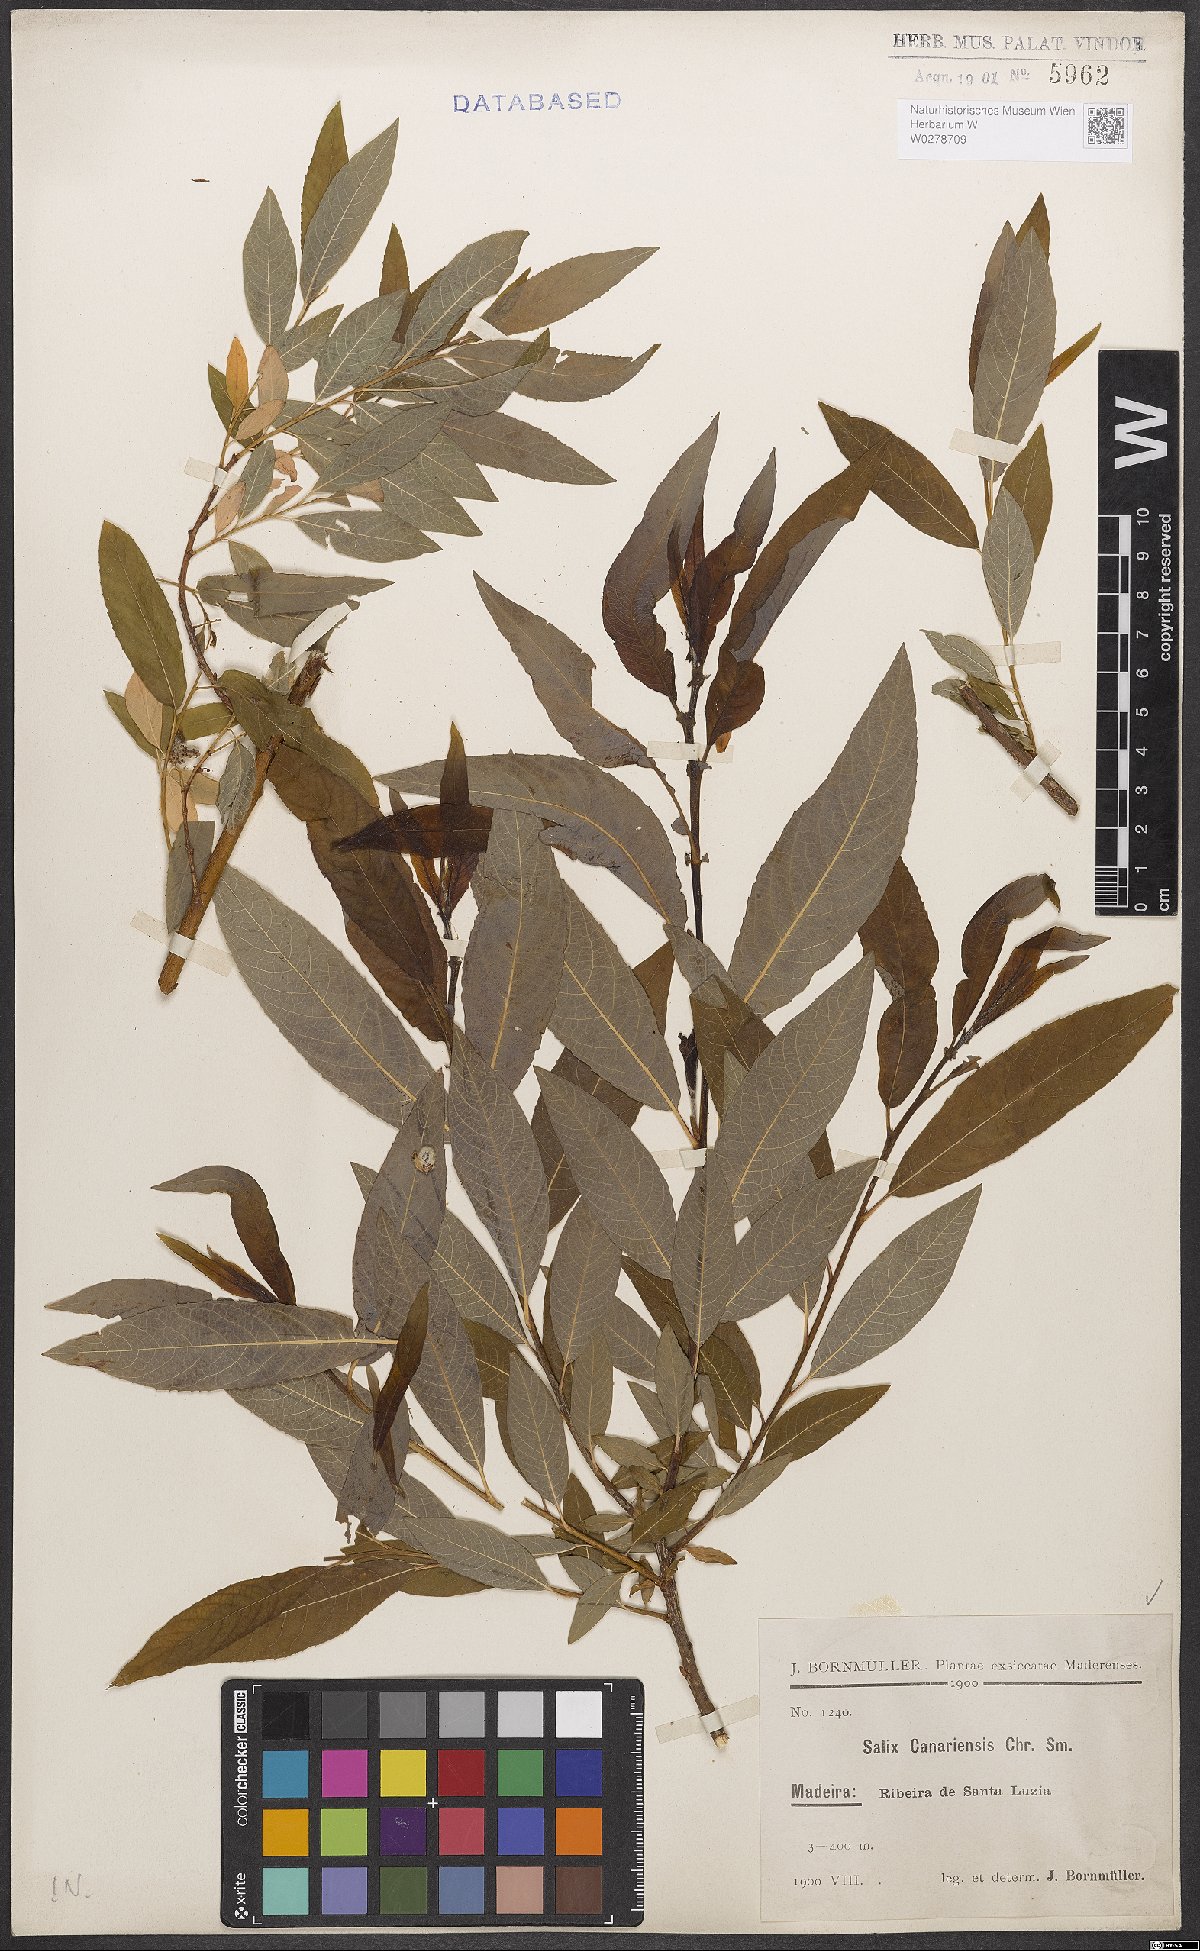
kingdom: Plantae
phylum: Tracheophyta
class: Magnoliopsida
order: Malpighiales
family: Salicaceae
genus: Salix
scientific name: Salix canariensis
